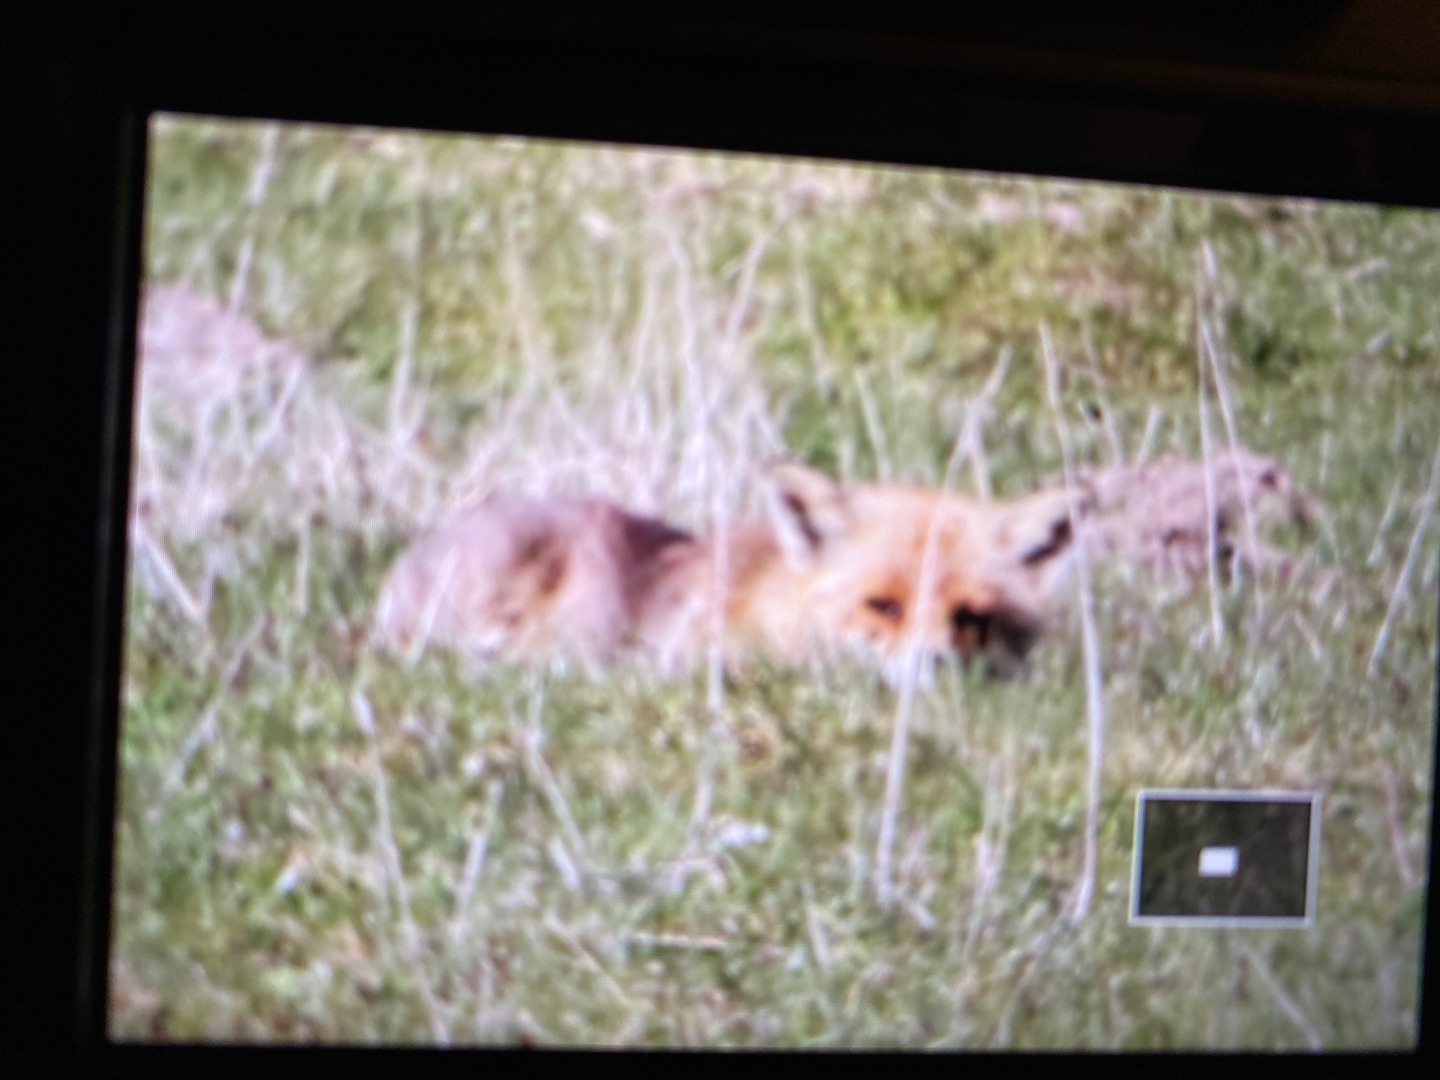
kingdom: Animalia
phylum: Chordata
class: Mammalia
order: Carnivora
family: Canidae
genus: Vulpes
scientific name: Vulpes vulpes
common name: Ræv
